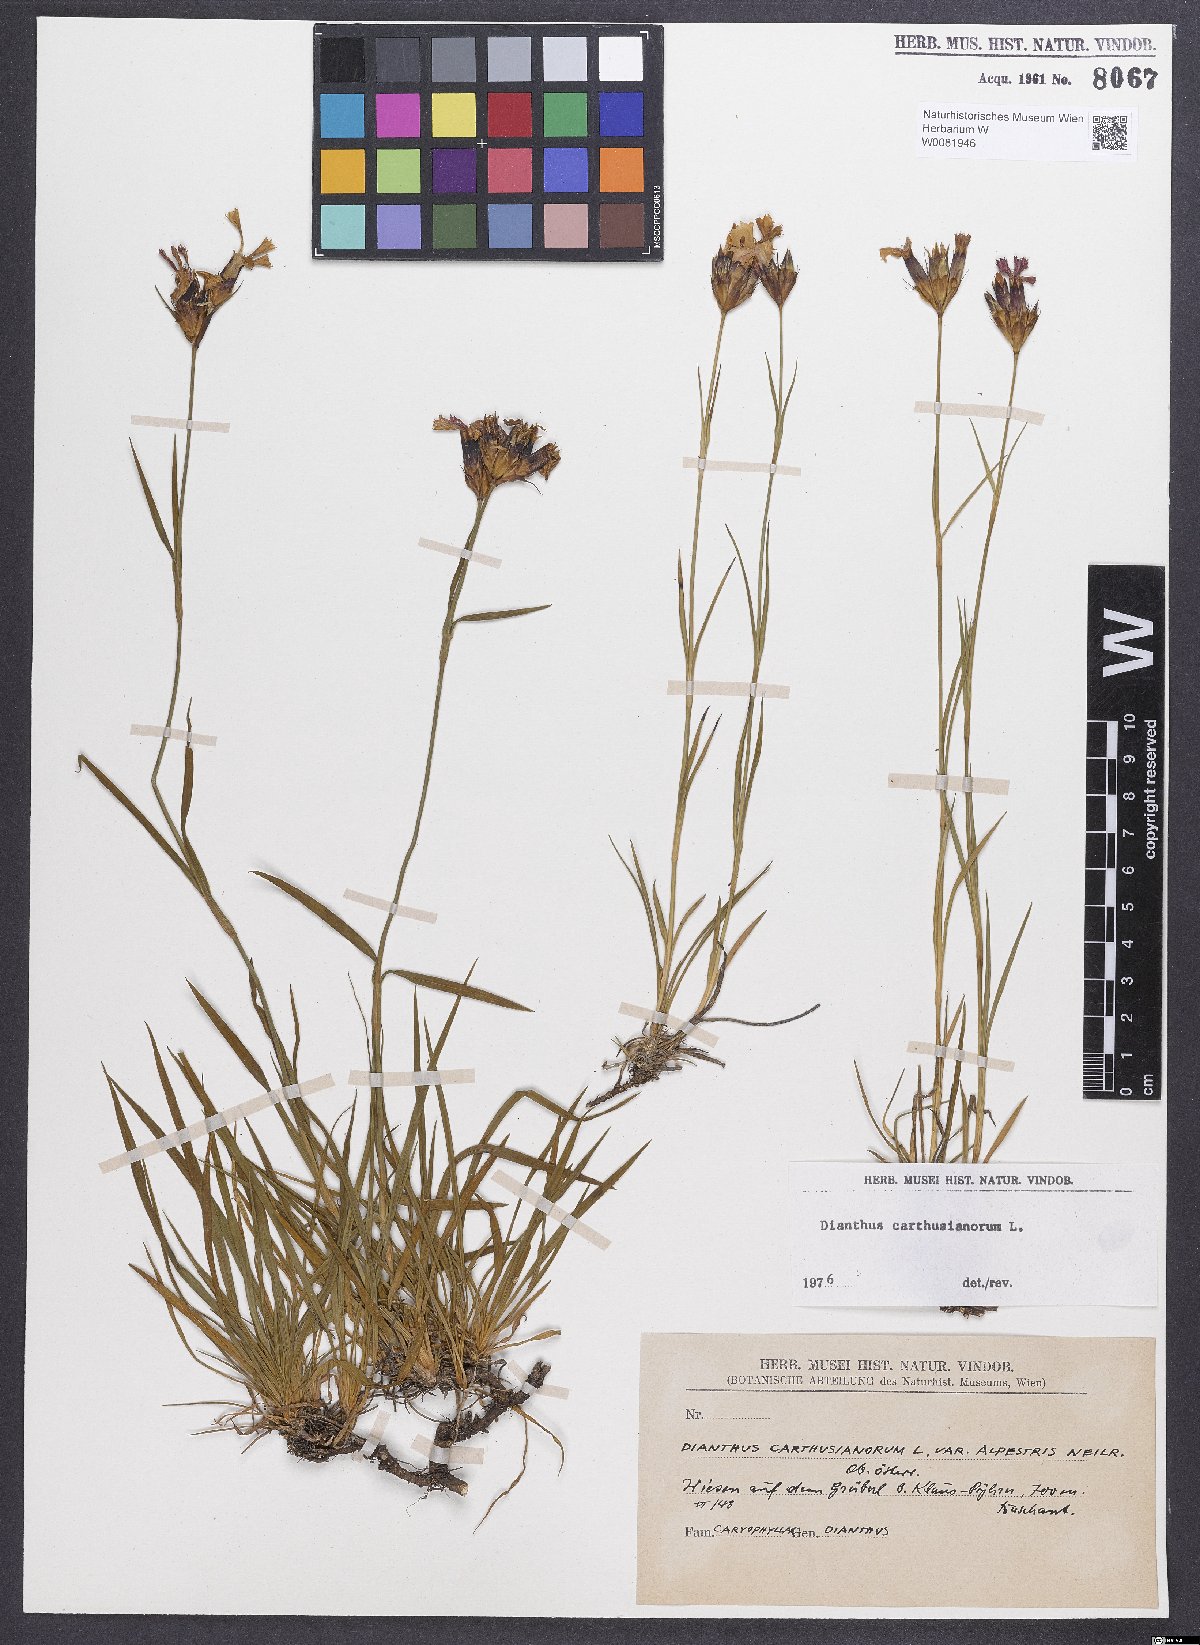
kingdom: Plantae
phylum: Tracheophyta
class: Magnoliopsida
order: Caryophyllales
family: Caryophyllaceae
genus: Dianthus
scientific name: Dianthus carthusianorum
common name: Carthusian pink
